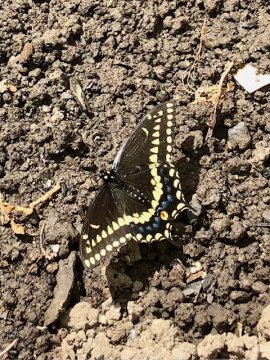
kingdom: Animalia
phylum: Arthropoda
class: Insecta
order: Lepidoptera
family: Papilionidae
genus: Papilio
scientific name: Papilio polyxenes
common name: Black Swallowtail
